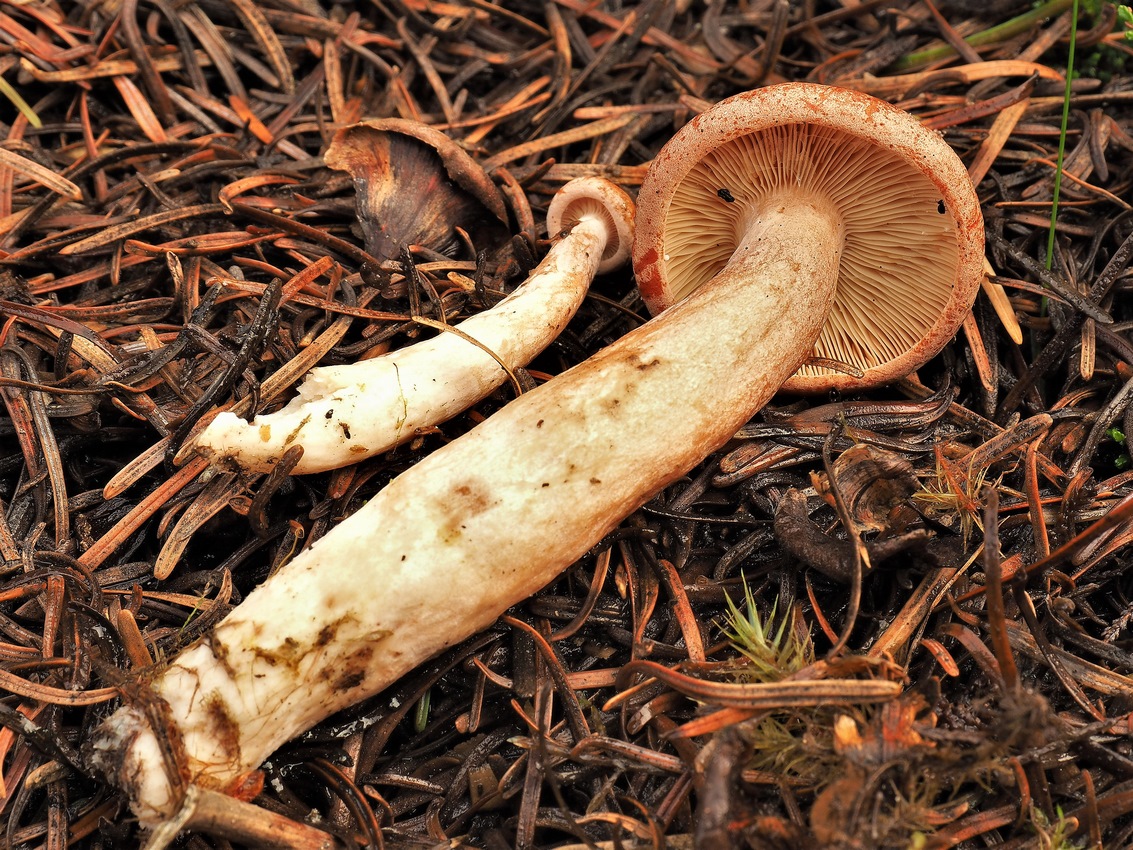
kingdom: Fungi
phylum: Basidiomycota
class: Agaricomycetes
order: Russulales
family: Russulaceae
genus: Lactarius
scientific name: Lactarius rufus
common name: rødbrun mælkehat
